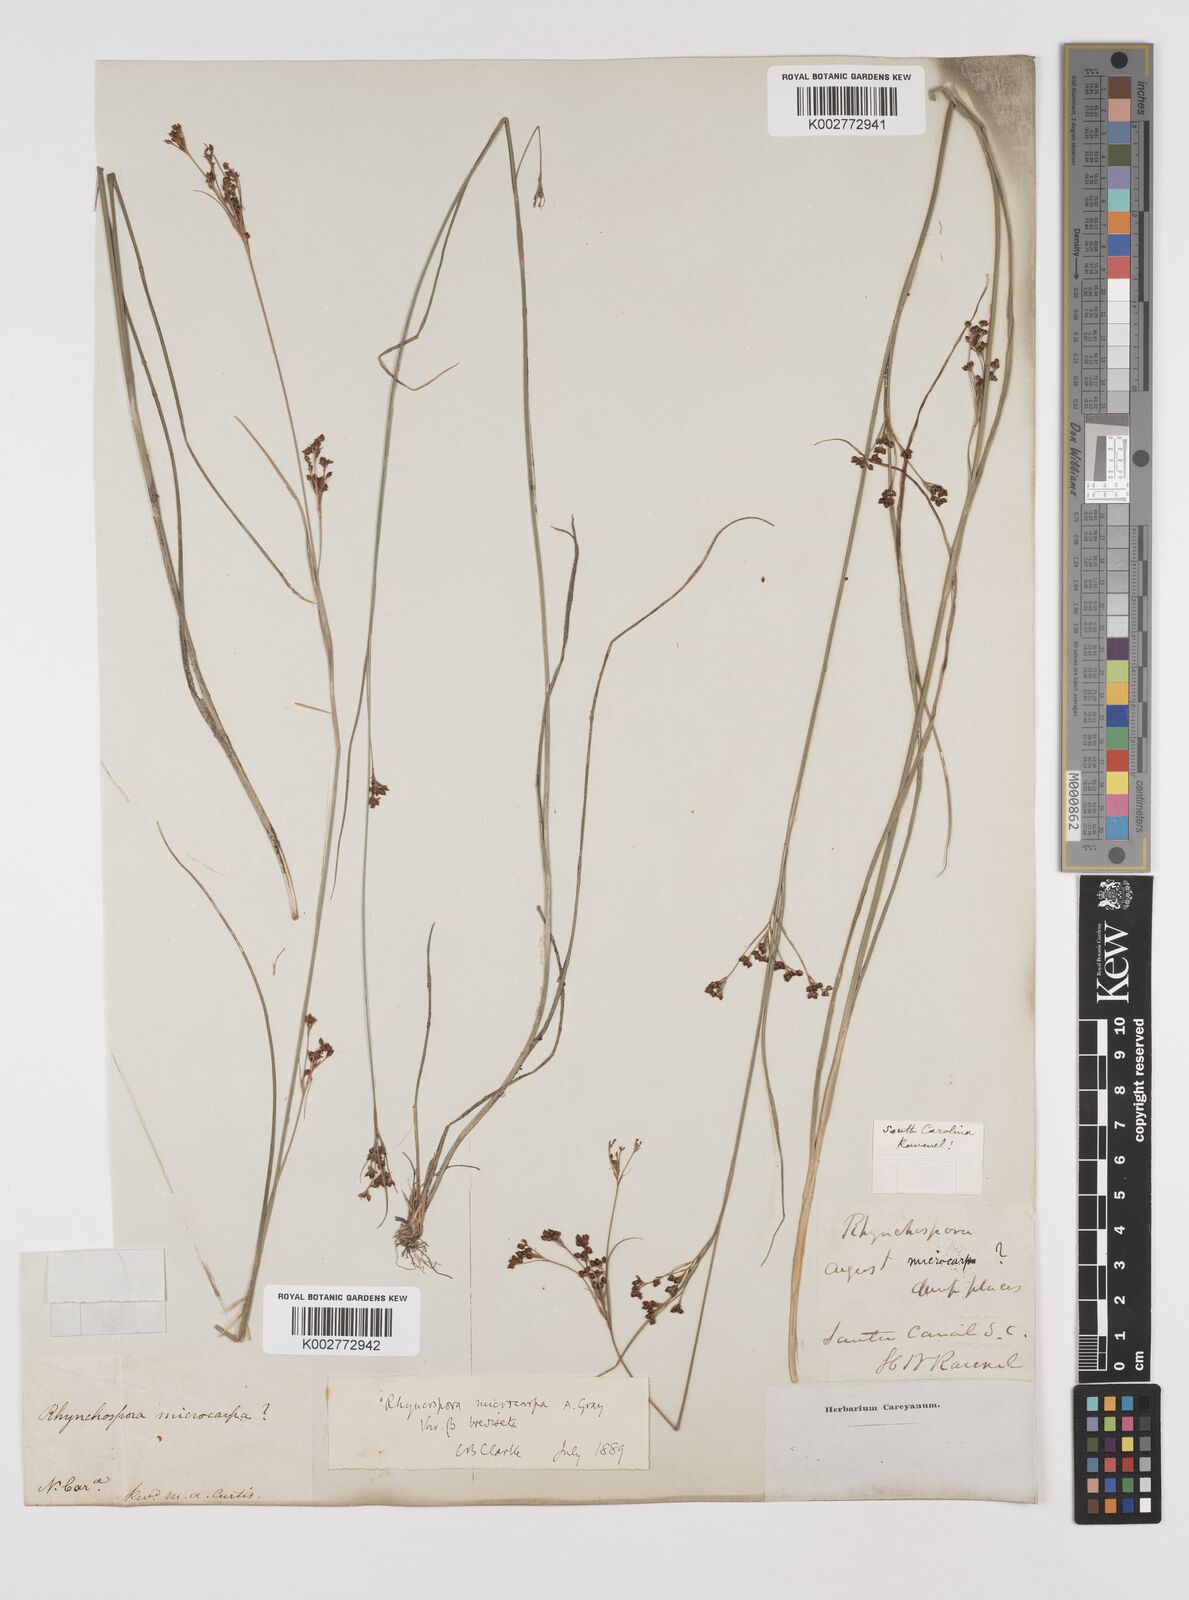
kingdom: Plantae
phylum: Tracheophyta
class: Liliopsida
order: Poales
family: Cyperaceae
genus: Rhynchospora
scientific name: Rhynchospora microcarpa
